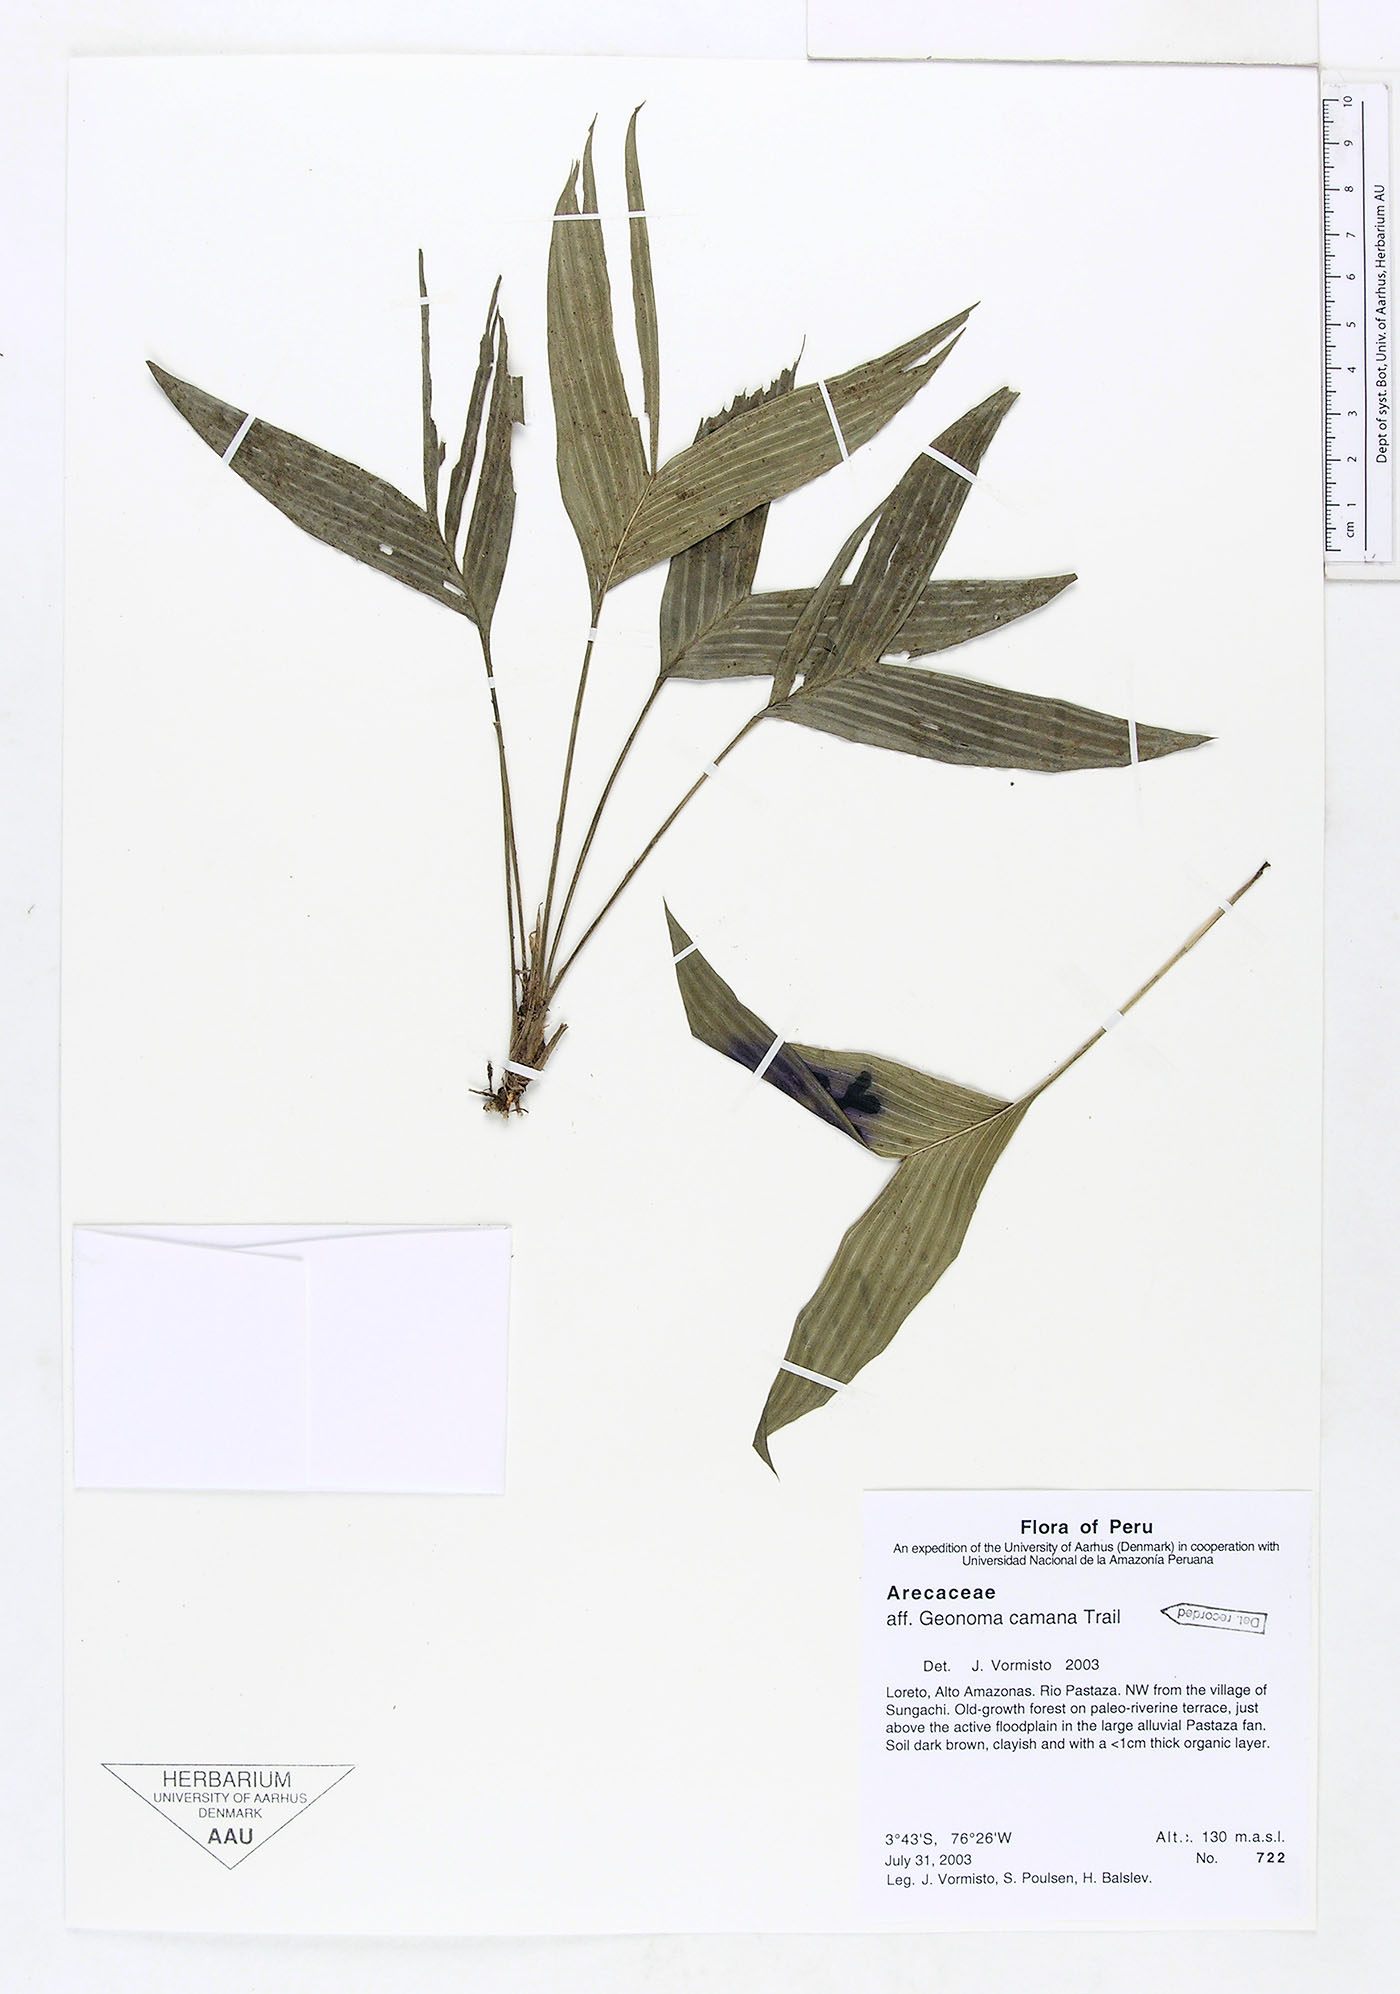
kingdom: Plantae
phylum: Tracheophyta
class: Liliopsida
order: Arecales
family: Arecaceae
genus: Geonoma
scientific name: Geonoma camana
